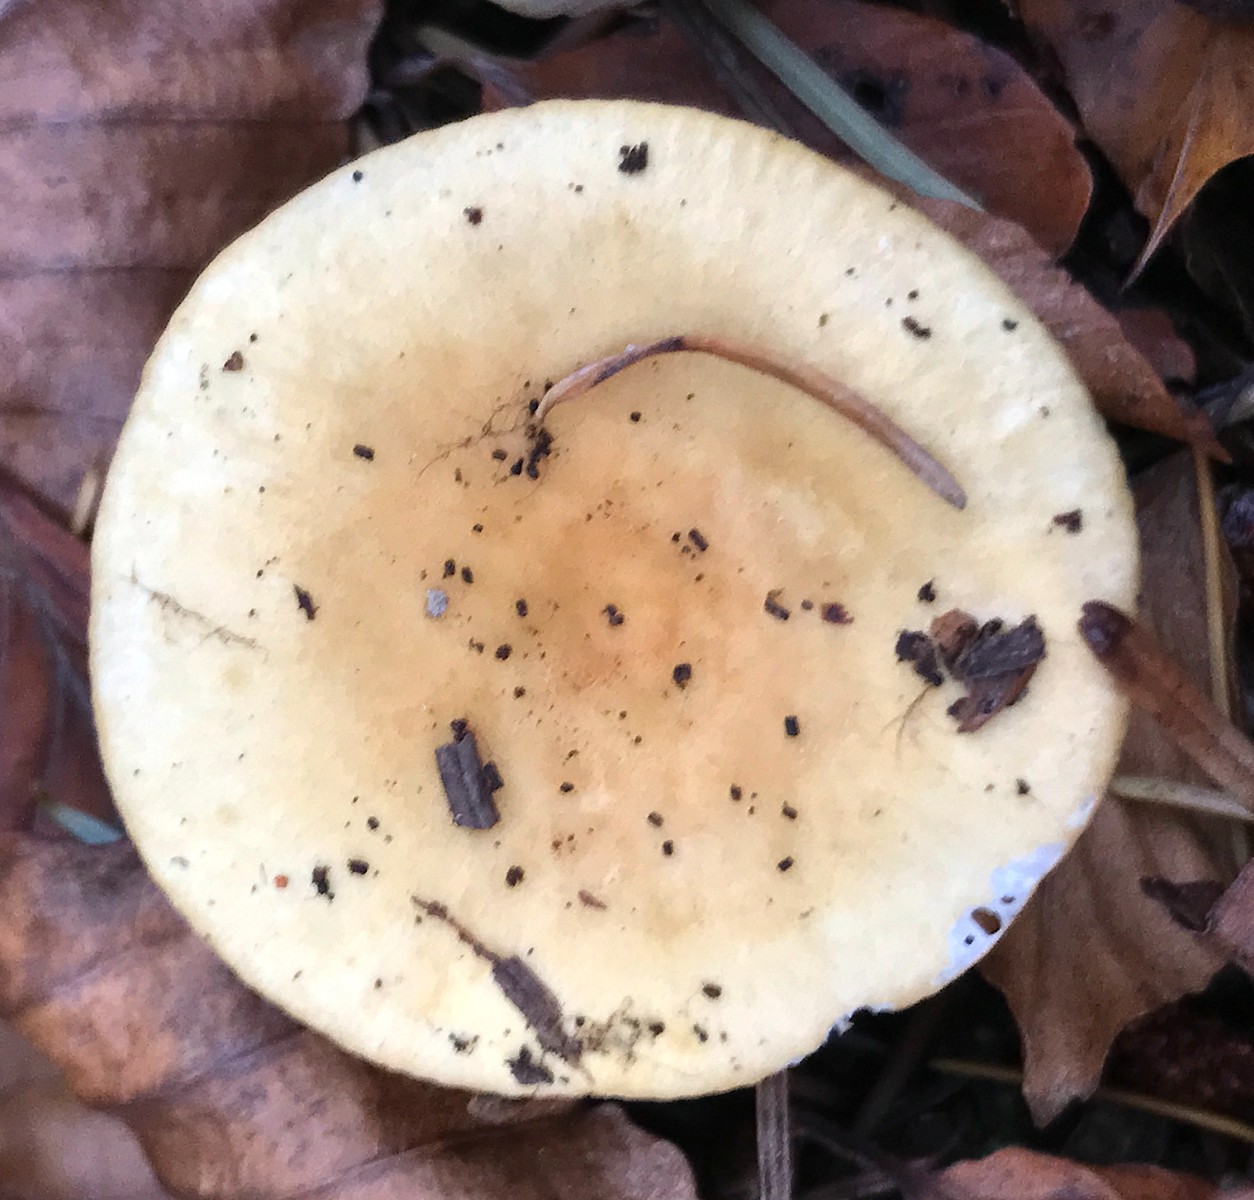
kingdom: Fungi
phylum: Basidiomycota
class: Agaricomycetes
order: Russulales
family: Russulaceae
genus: Russula
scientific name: Russula ochroleuca
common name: okkergul skørhat
